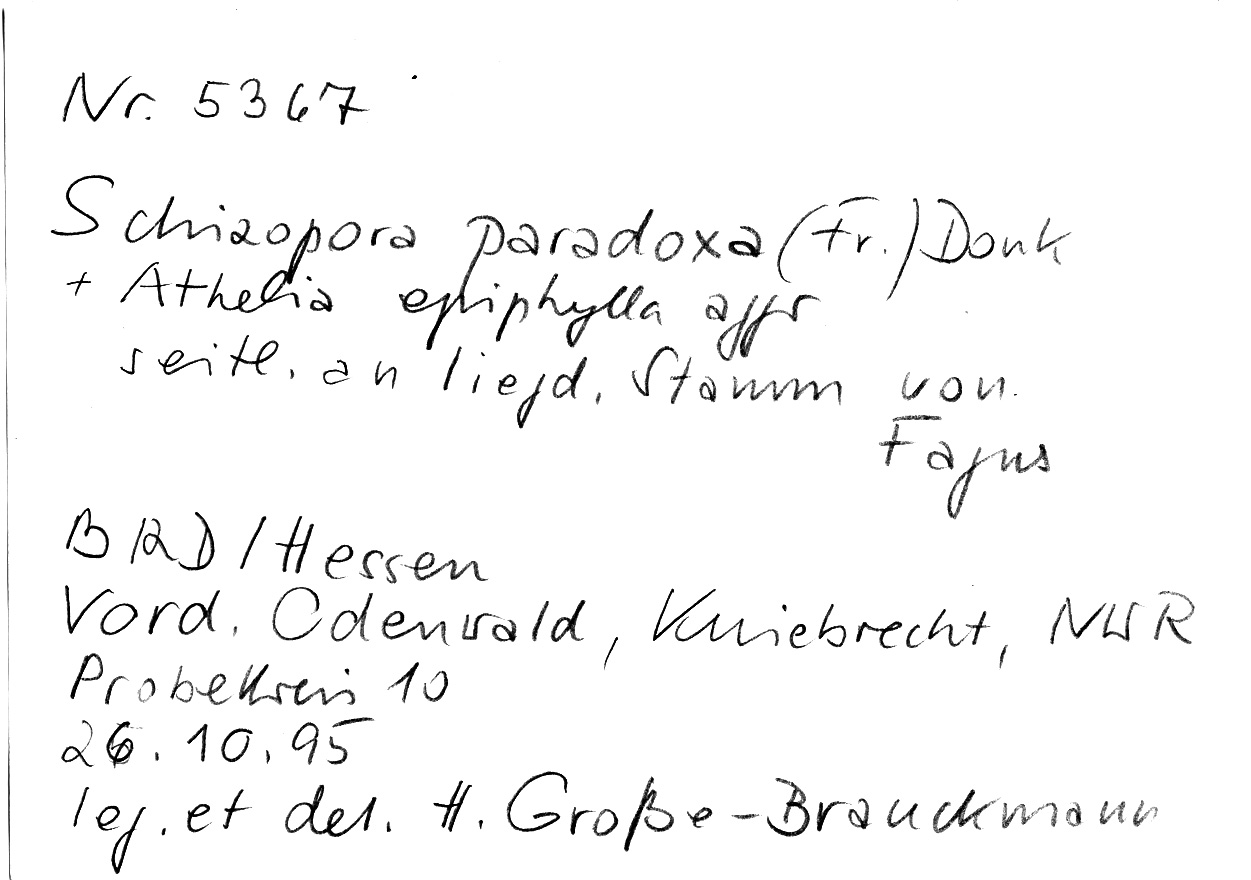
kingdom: Plantae
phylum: Tracheophyta
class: Magnoliopsida
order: Fagales
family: Fagaceae
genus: Fagus
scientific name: Fagus sylvatica
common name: Beech
